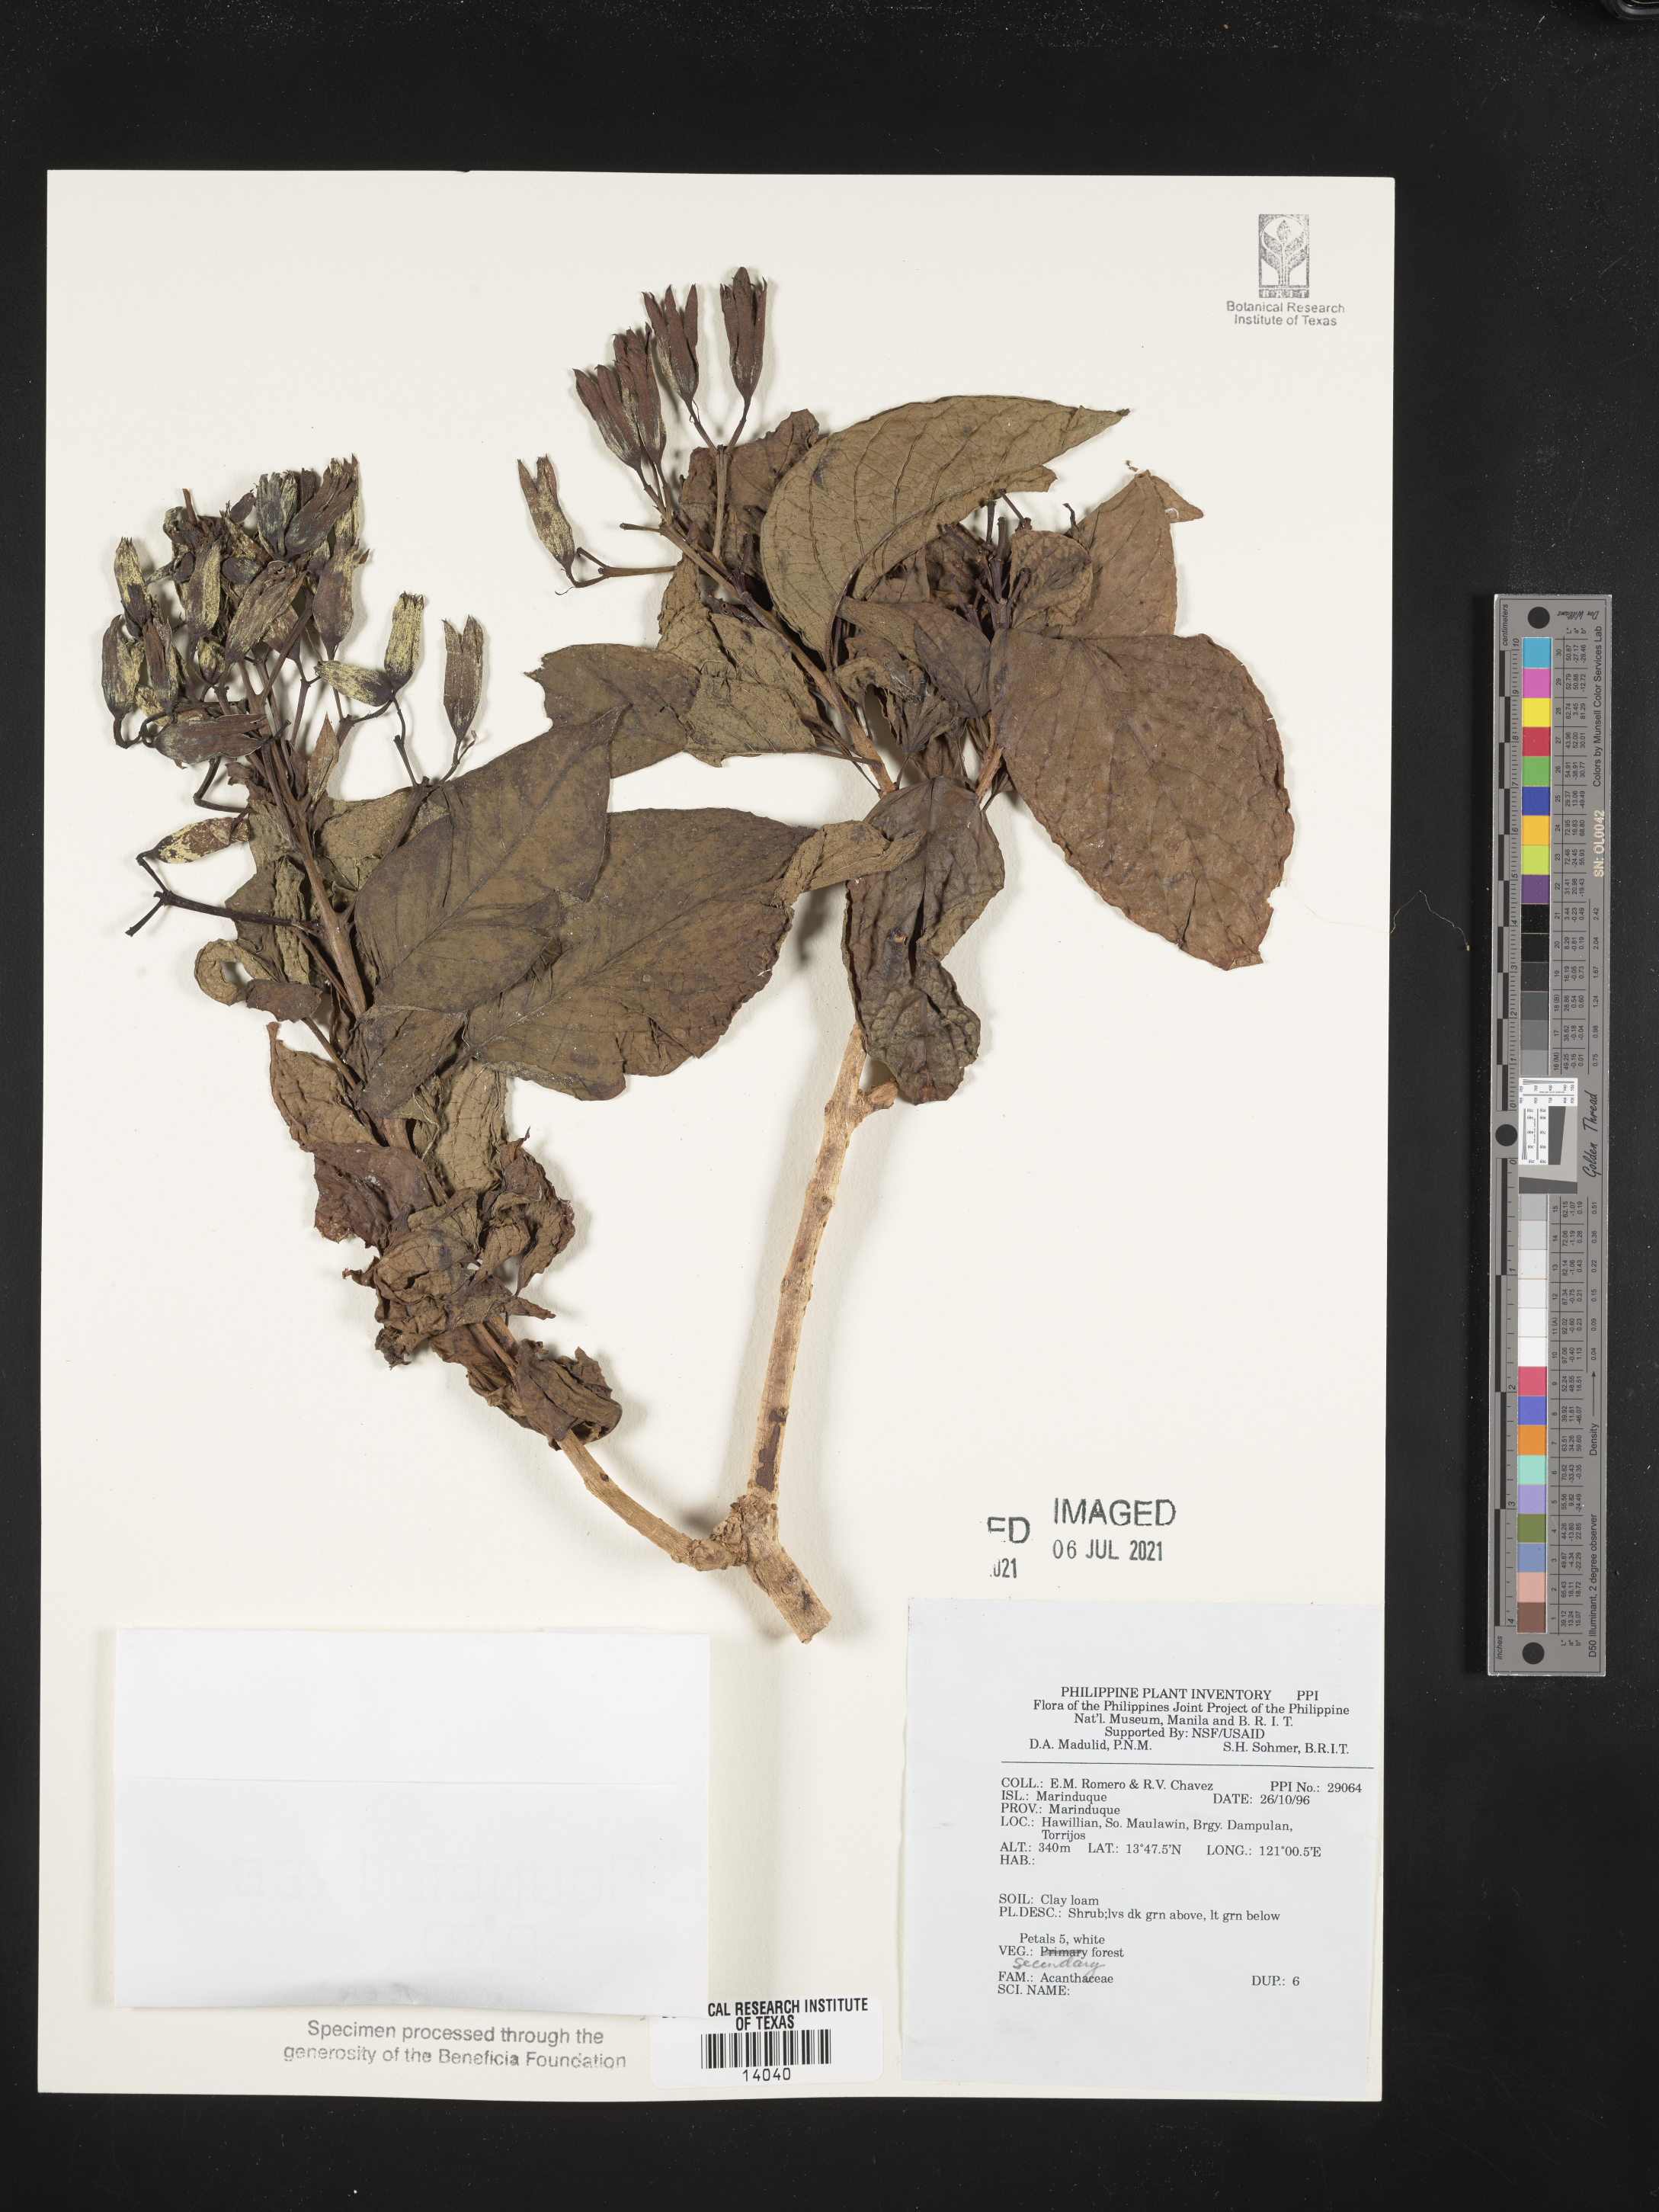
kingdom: Plantae
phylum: Tracheophyta
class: Magnoliopsida
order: Lamiales
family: Acanthaceae
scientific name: Acanthaceae
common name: Acanthaceae
